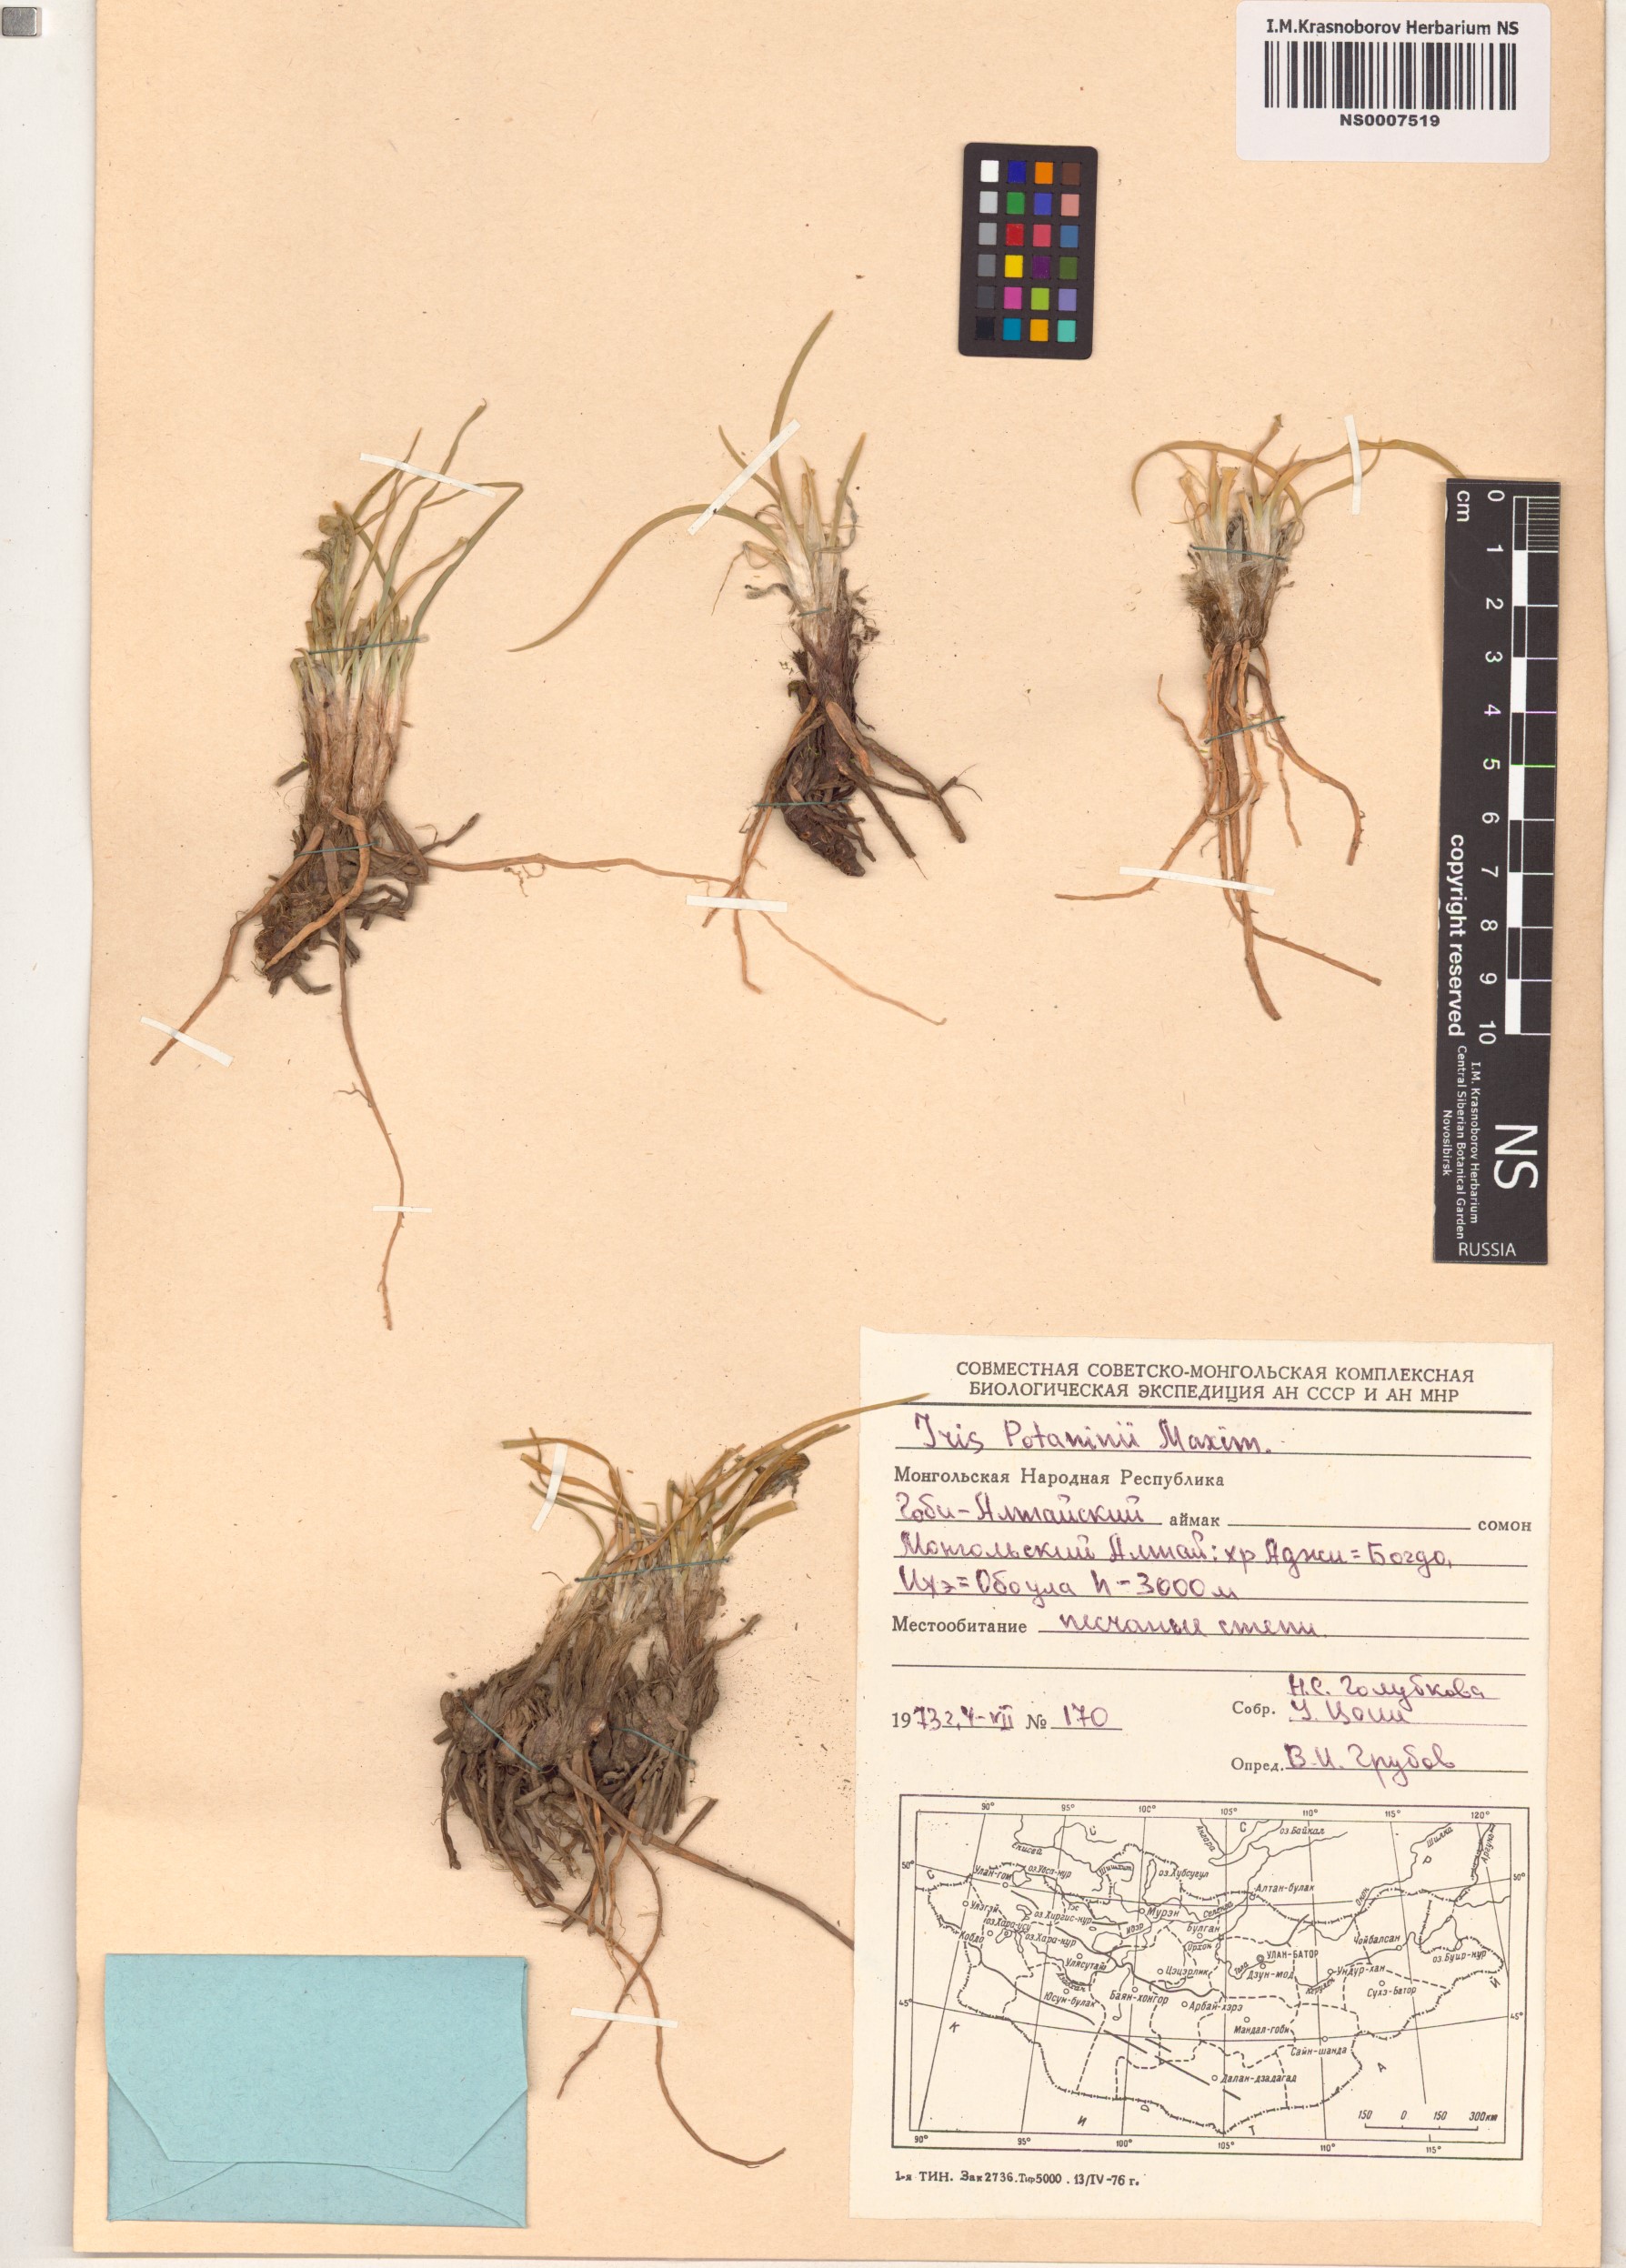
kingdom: Plantae
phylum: Tracheophyta
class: Liliopsida
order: Asparagales
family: Iridaceae
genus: Iris
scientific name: Iris potaninii
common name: Curl-sheath iris
